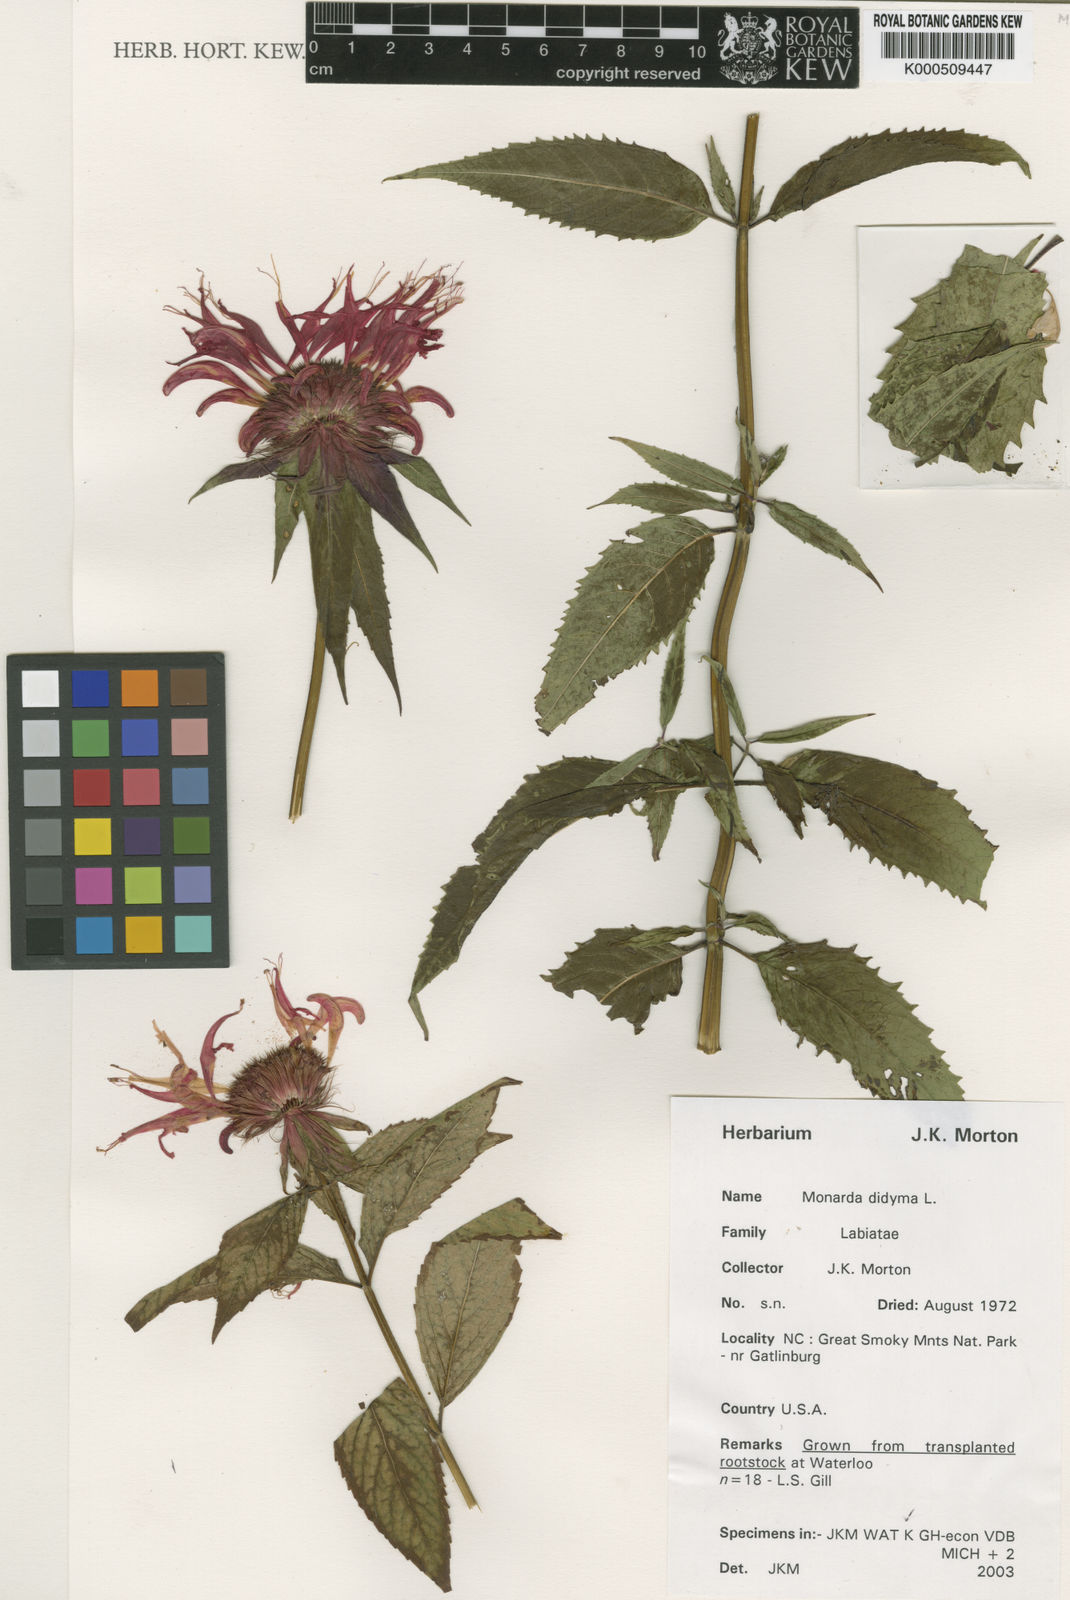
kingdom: Plantae
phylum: Tracheophyta
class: Magnoliopsida
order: Lamiales
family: Lamiaceae
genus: Monarda
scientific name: Monarda didyma
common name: Beebalm
